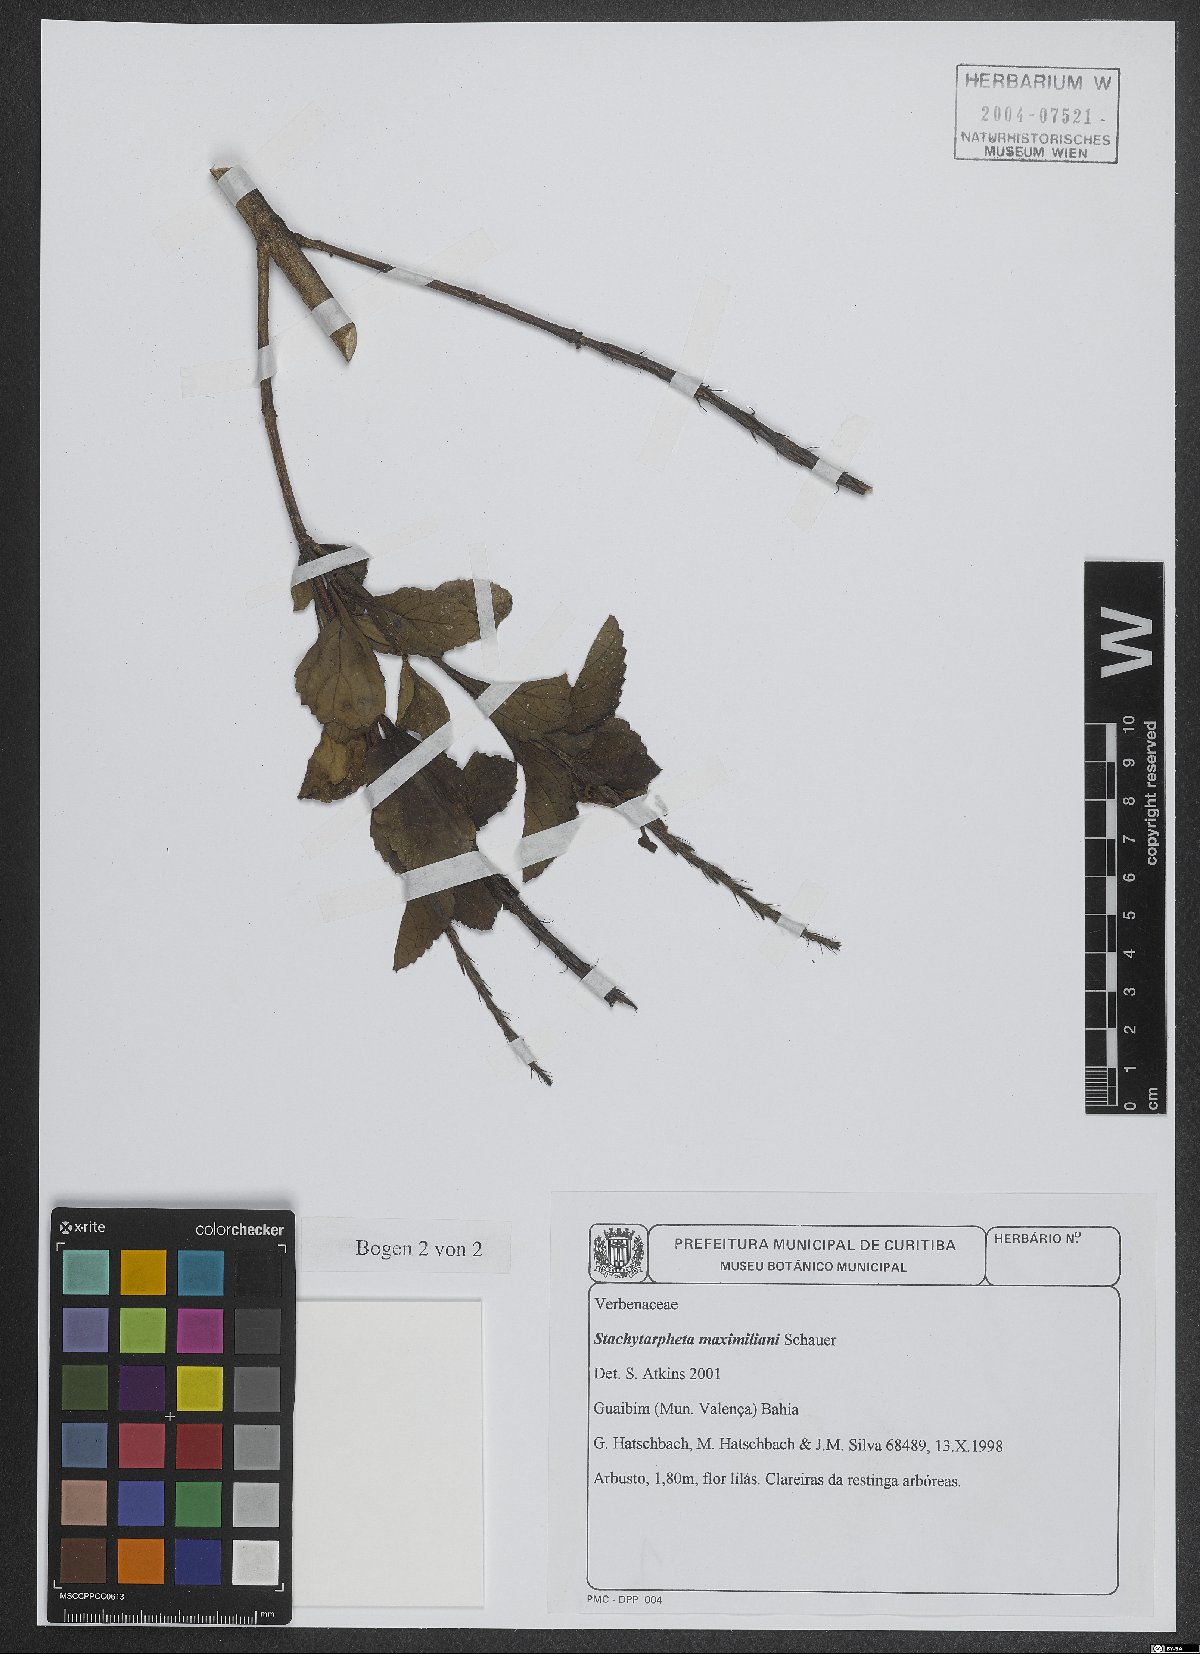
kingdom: Plantae
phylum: Tracheophyta
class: Magnoliopsida
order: Lamiales
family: Verbenaceae
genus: Stachytarpheta
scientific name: Stachytarpheta maximiliani
